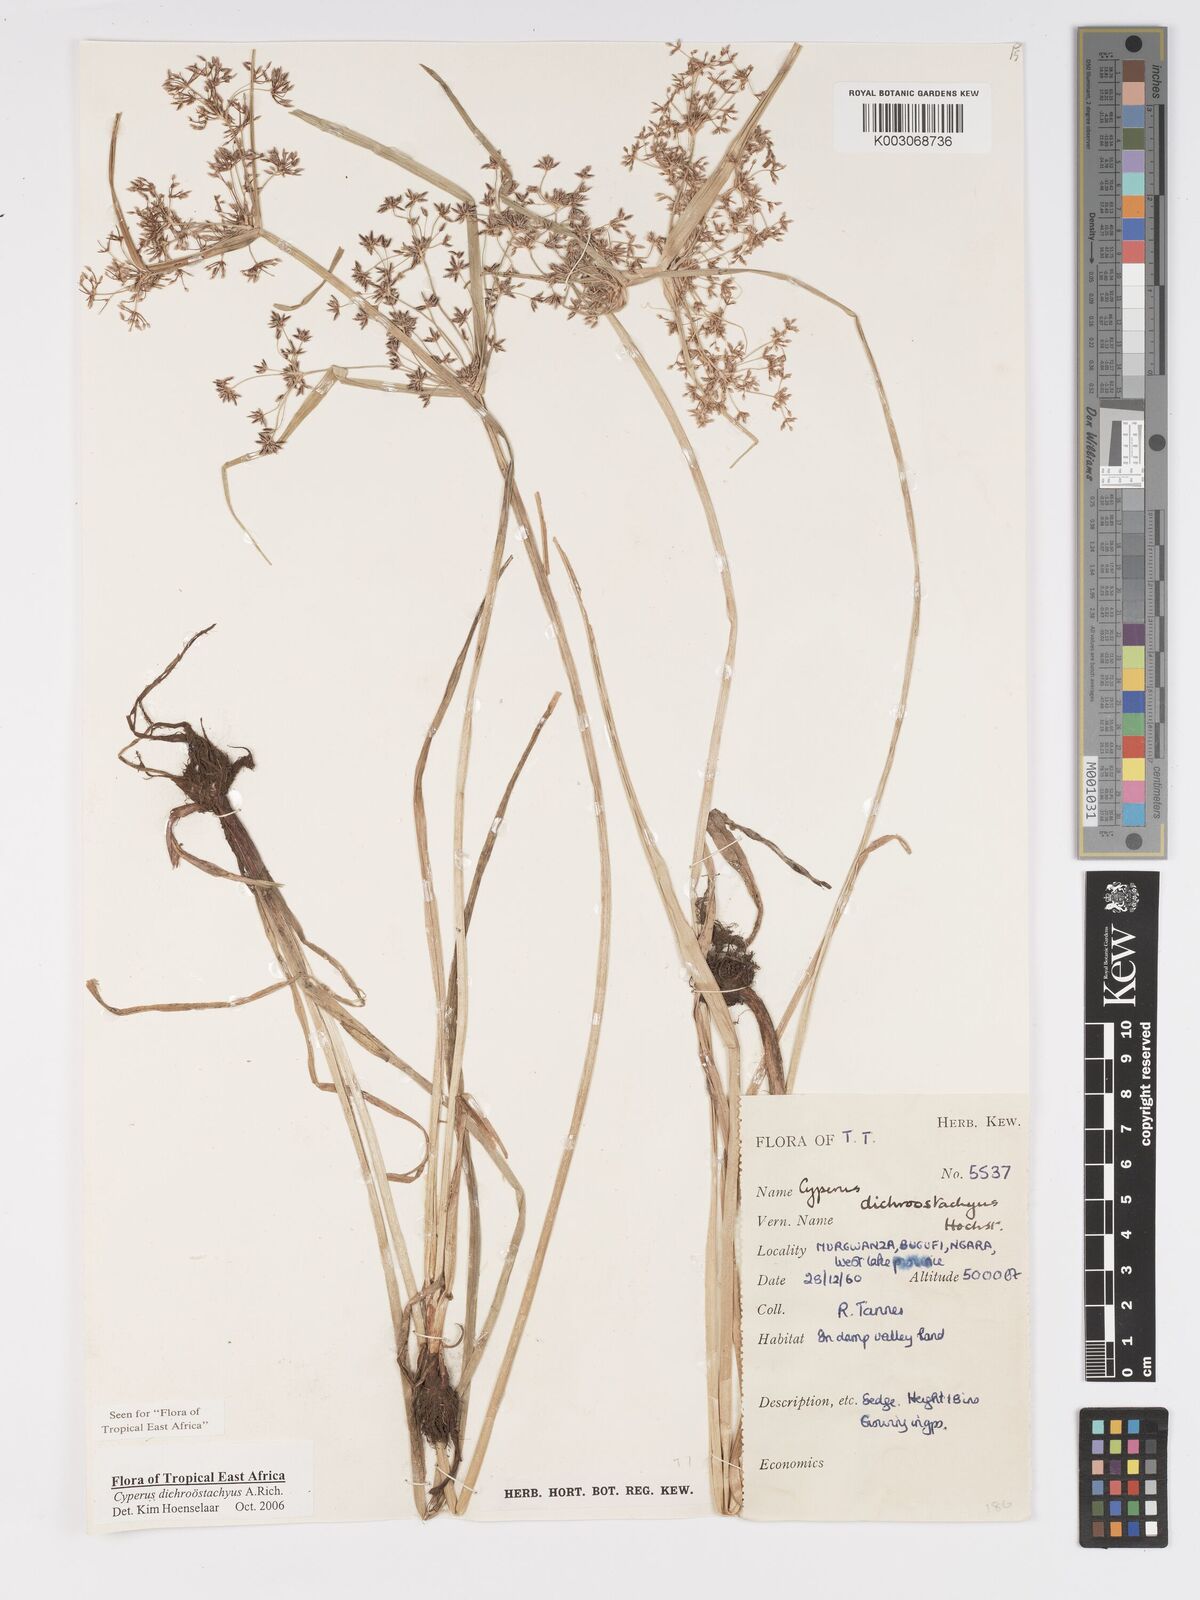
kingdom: Plantae
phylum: Tracheophyta
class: Liliopsida
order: Poales
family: Cyperaceae
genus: Cyperus
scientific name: Cyperus dichrostachyus
